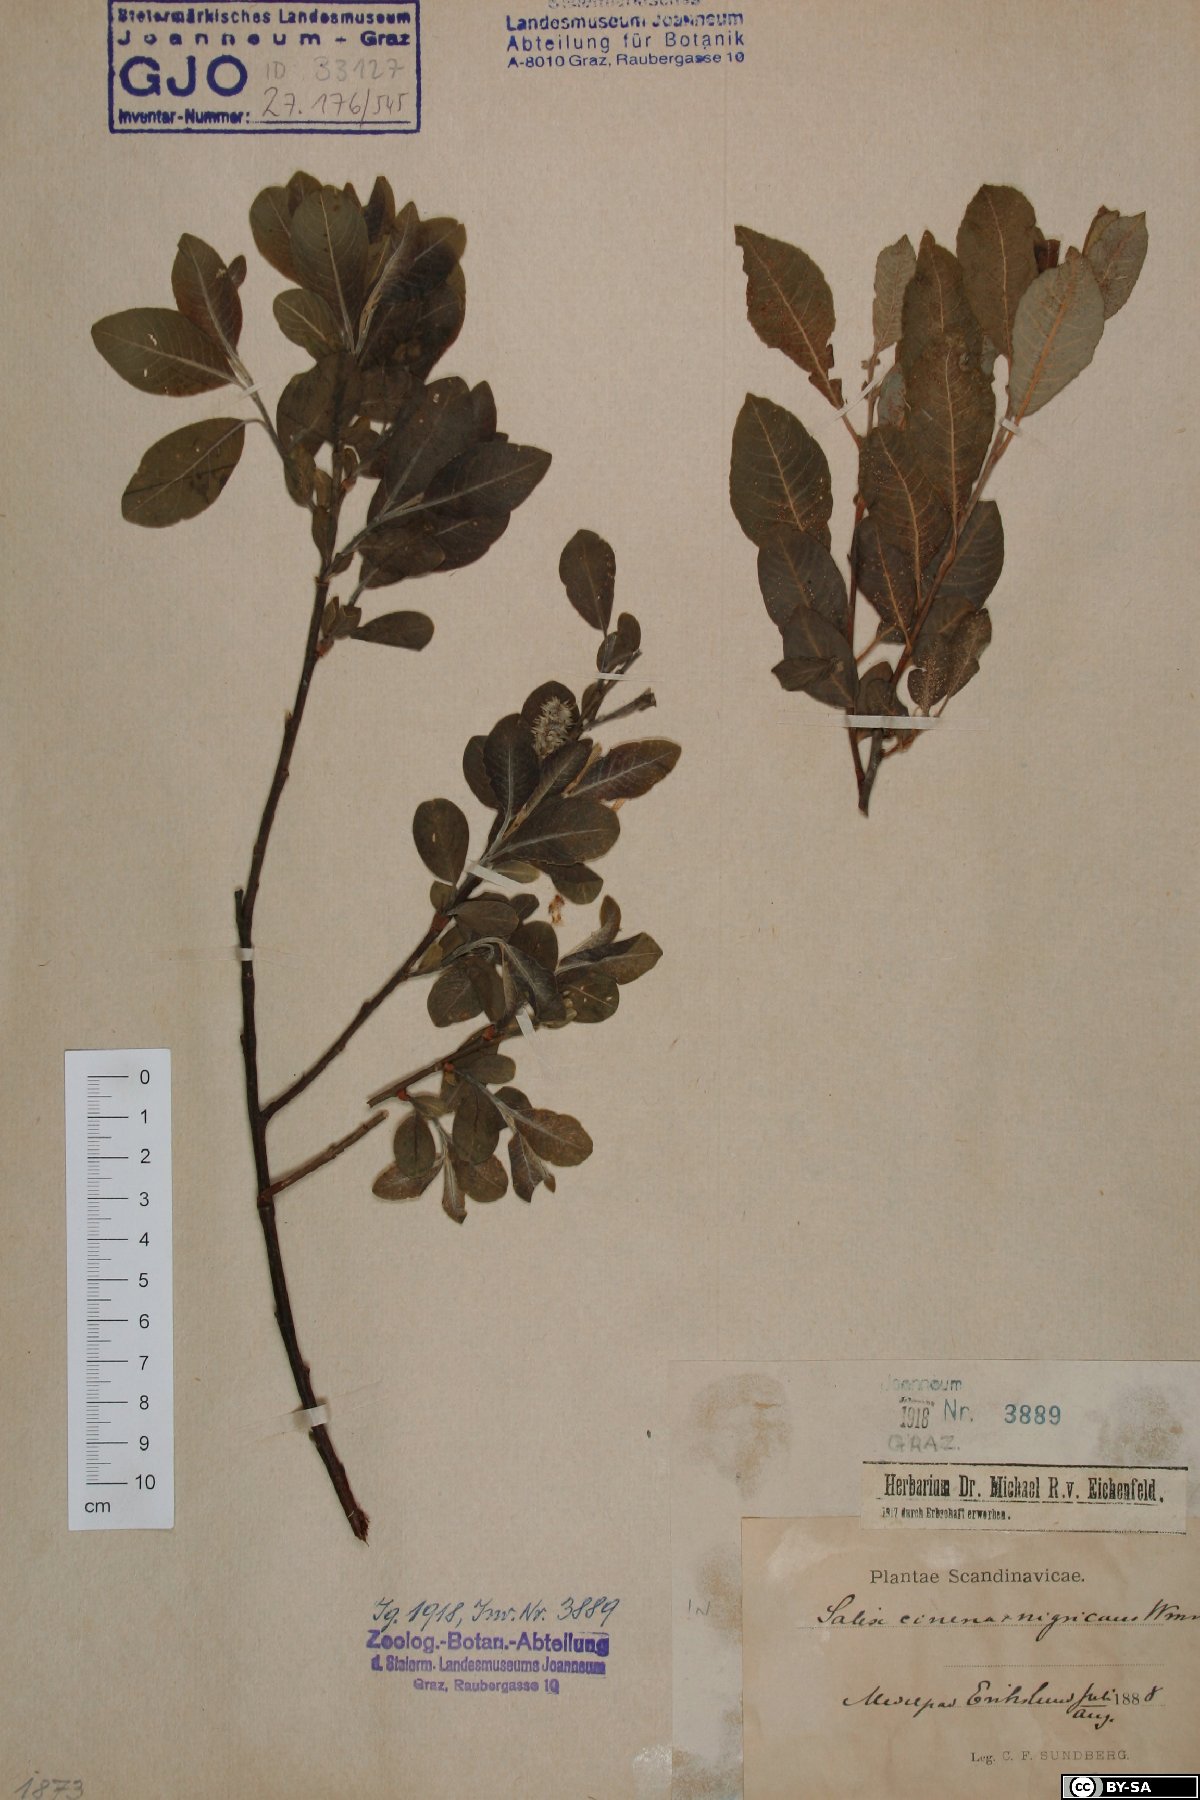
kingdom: Plantae
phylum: Tracheophyta
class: Magnoliopsida
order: Malpighiales
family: Salicaceae
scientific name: Salicaceae
